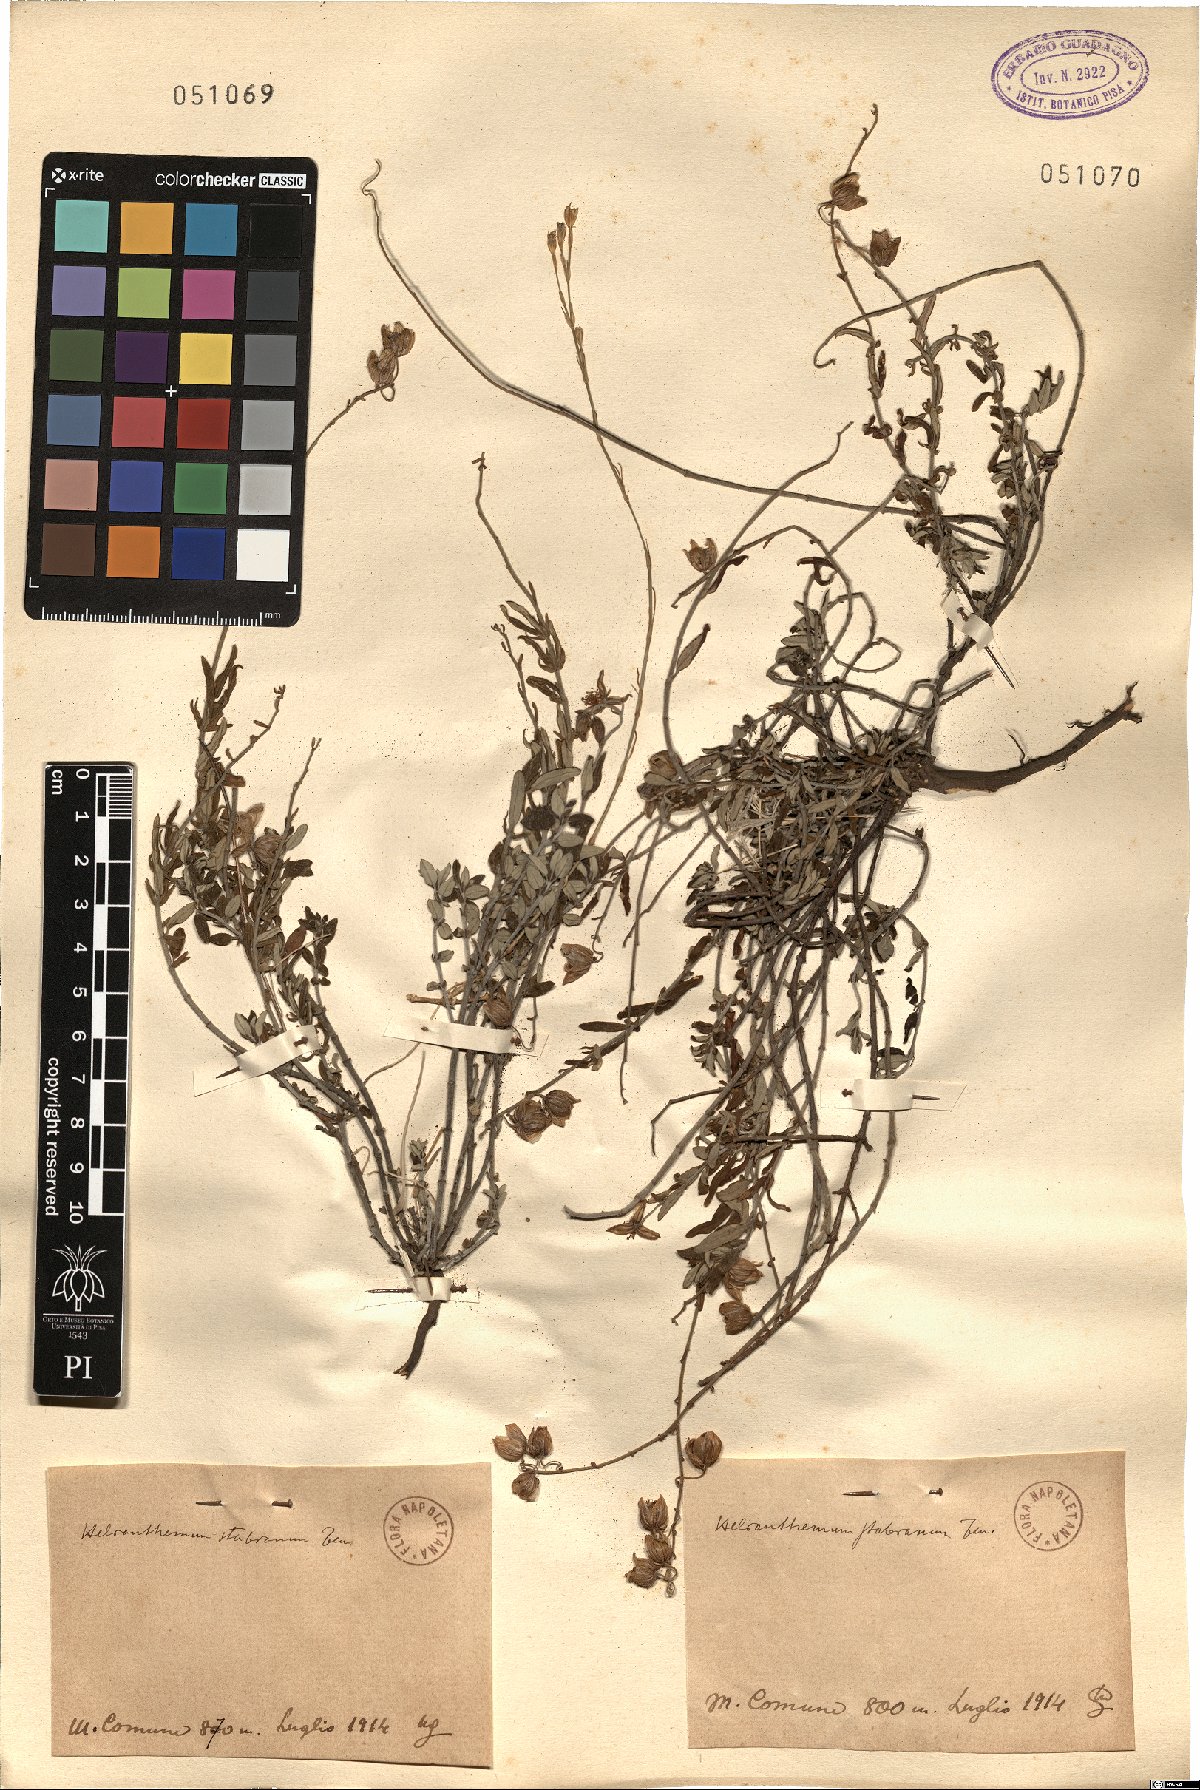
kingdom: Plantae
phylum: Tracheophyta
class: Magnoliopsida
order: Malvales
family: Cistaceae
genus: Helianthemum
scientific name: Helianthemum croceum
